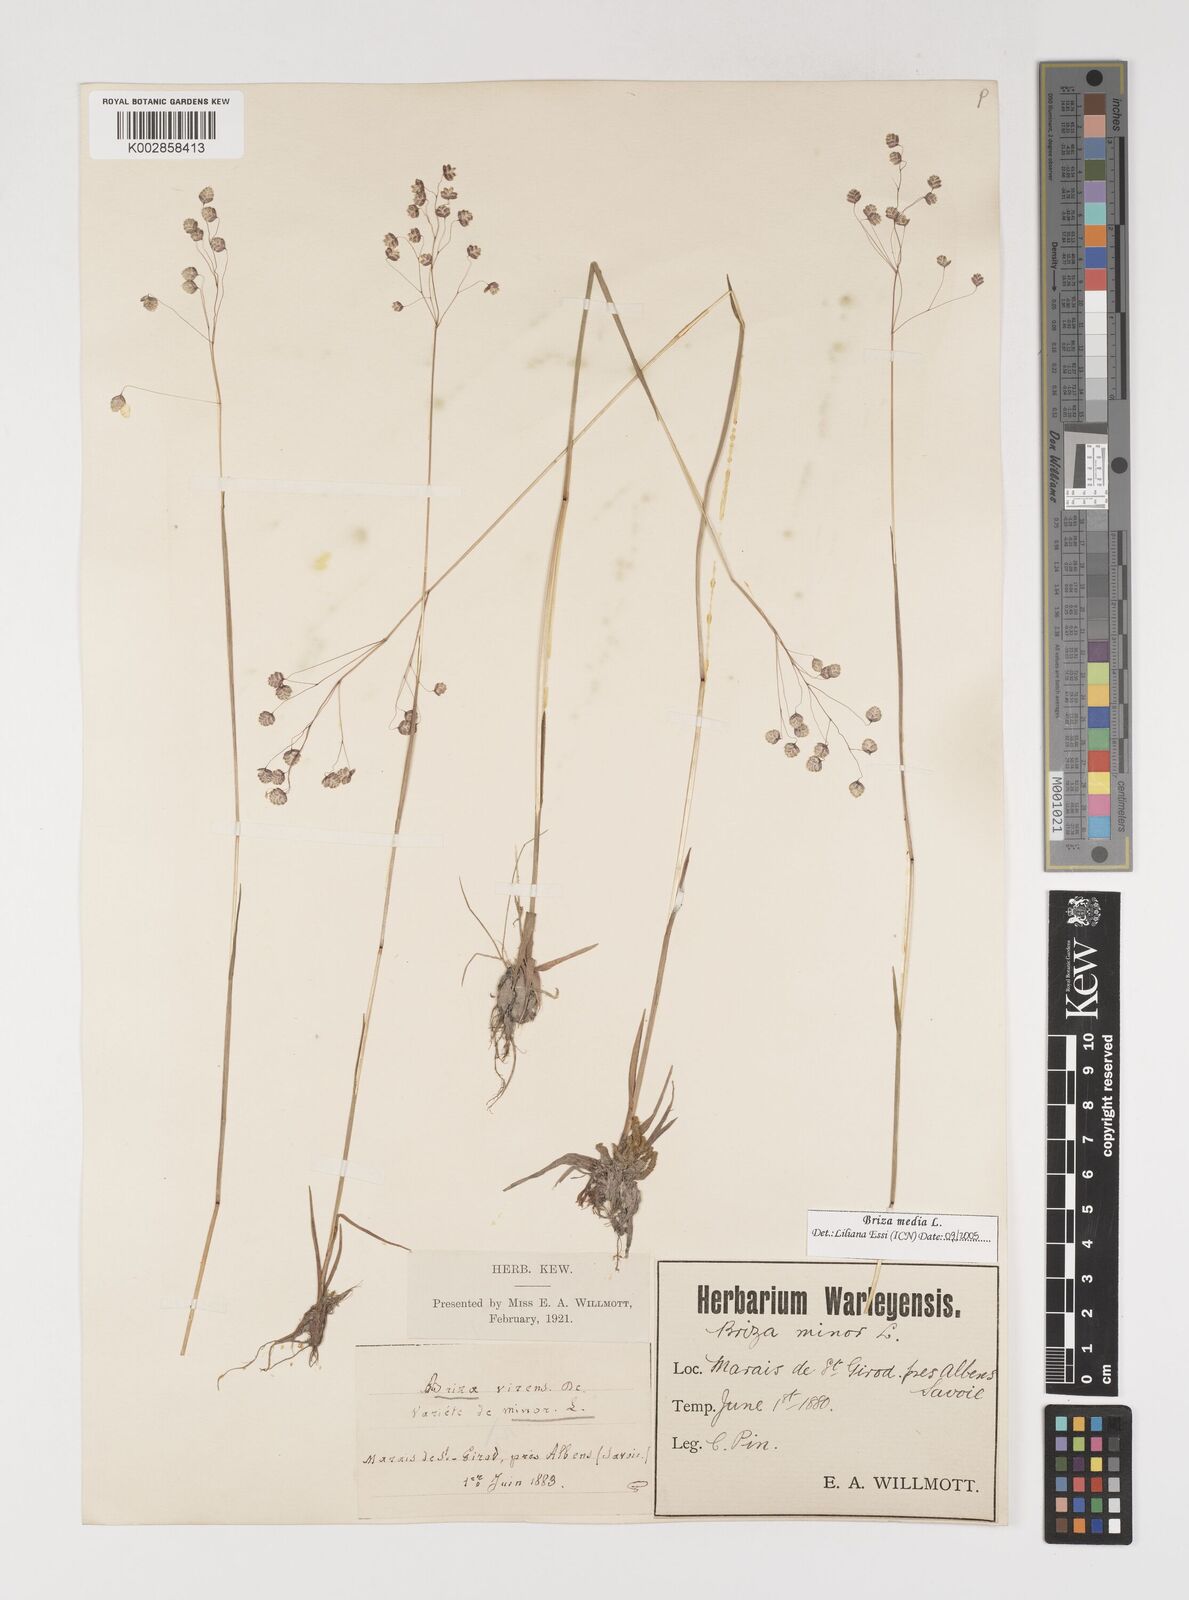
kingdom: Plantae
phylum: Tracheophyta
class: Liliopsida
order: Poales
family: Poaceae
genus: Briza
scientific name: Briza media
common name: Quaking grass
